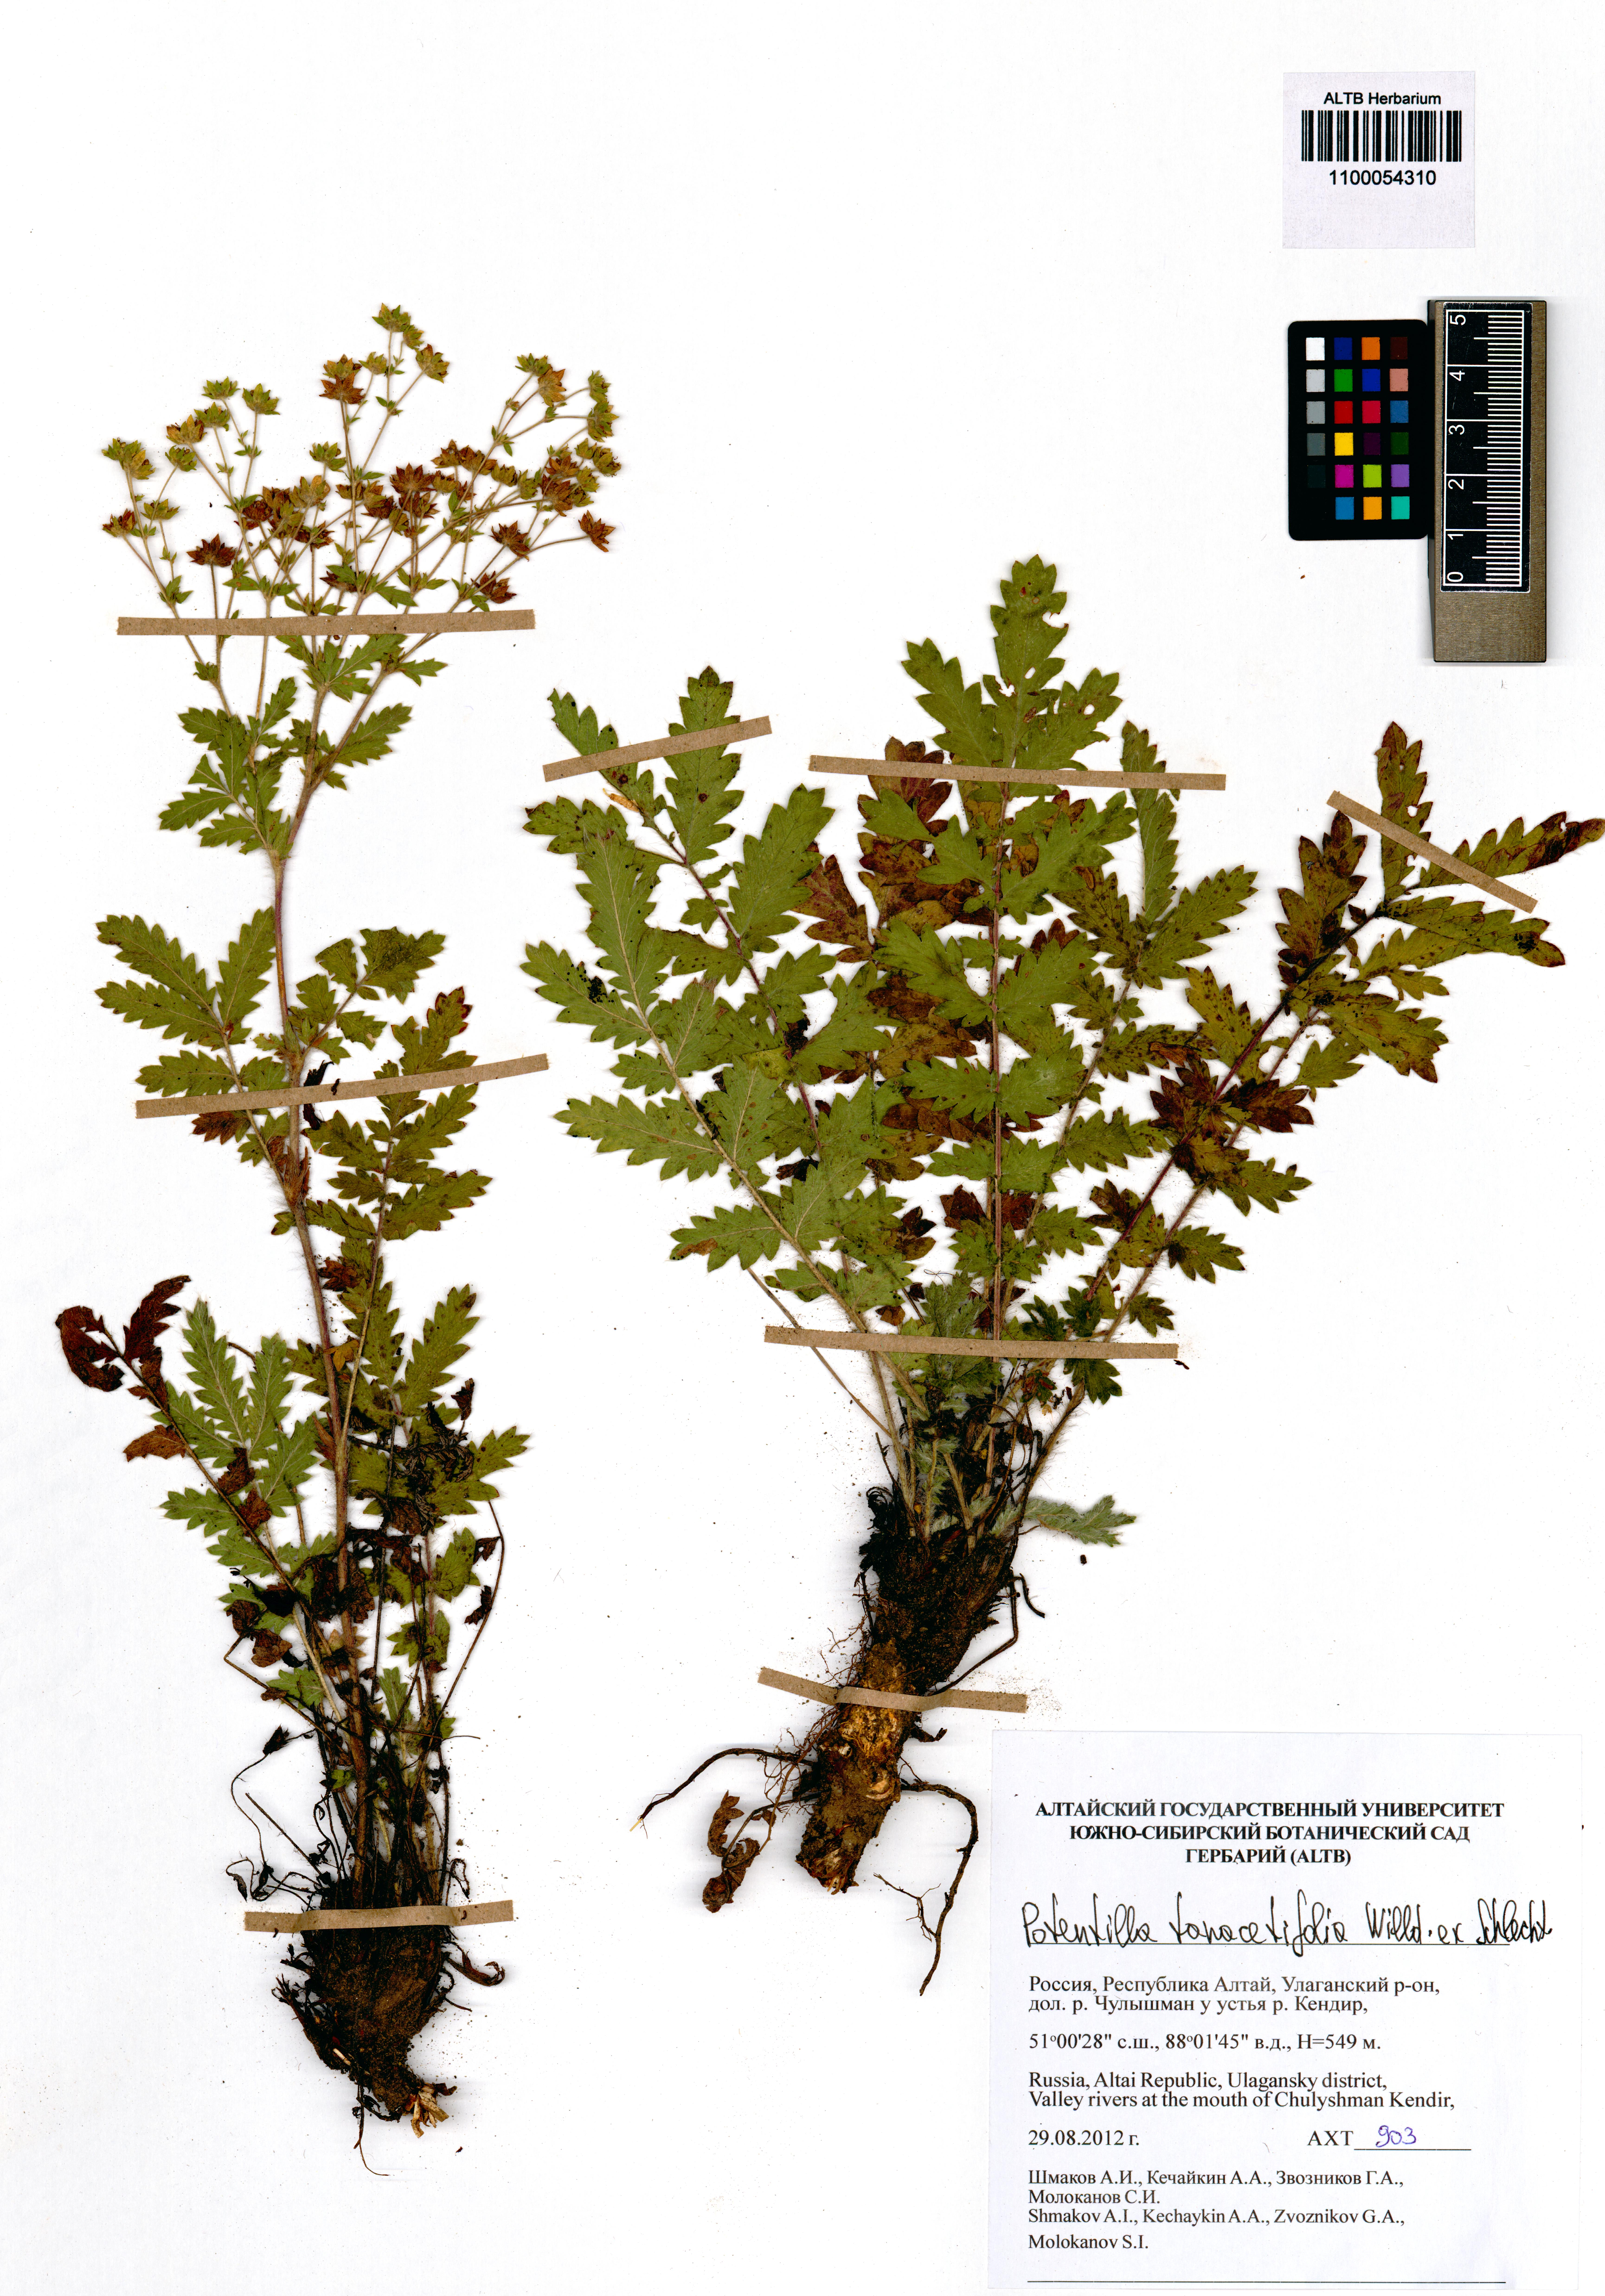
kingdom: Plantae
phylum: Tracheophyta
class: Magnoliopsida
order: Rosales
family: Rosaceae
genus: Potentilla
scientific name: Potentilla tanacetifolia
